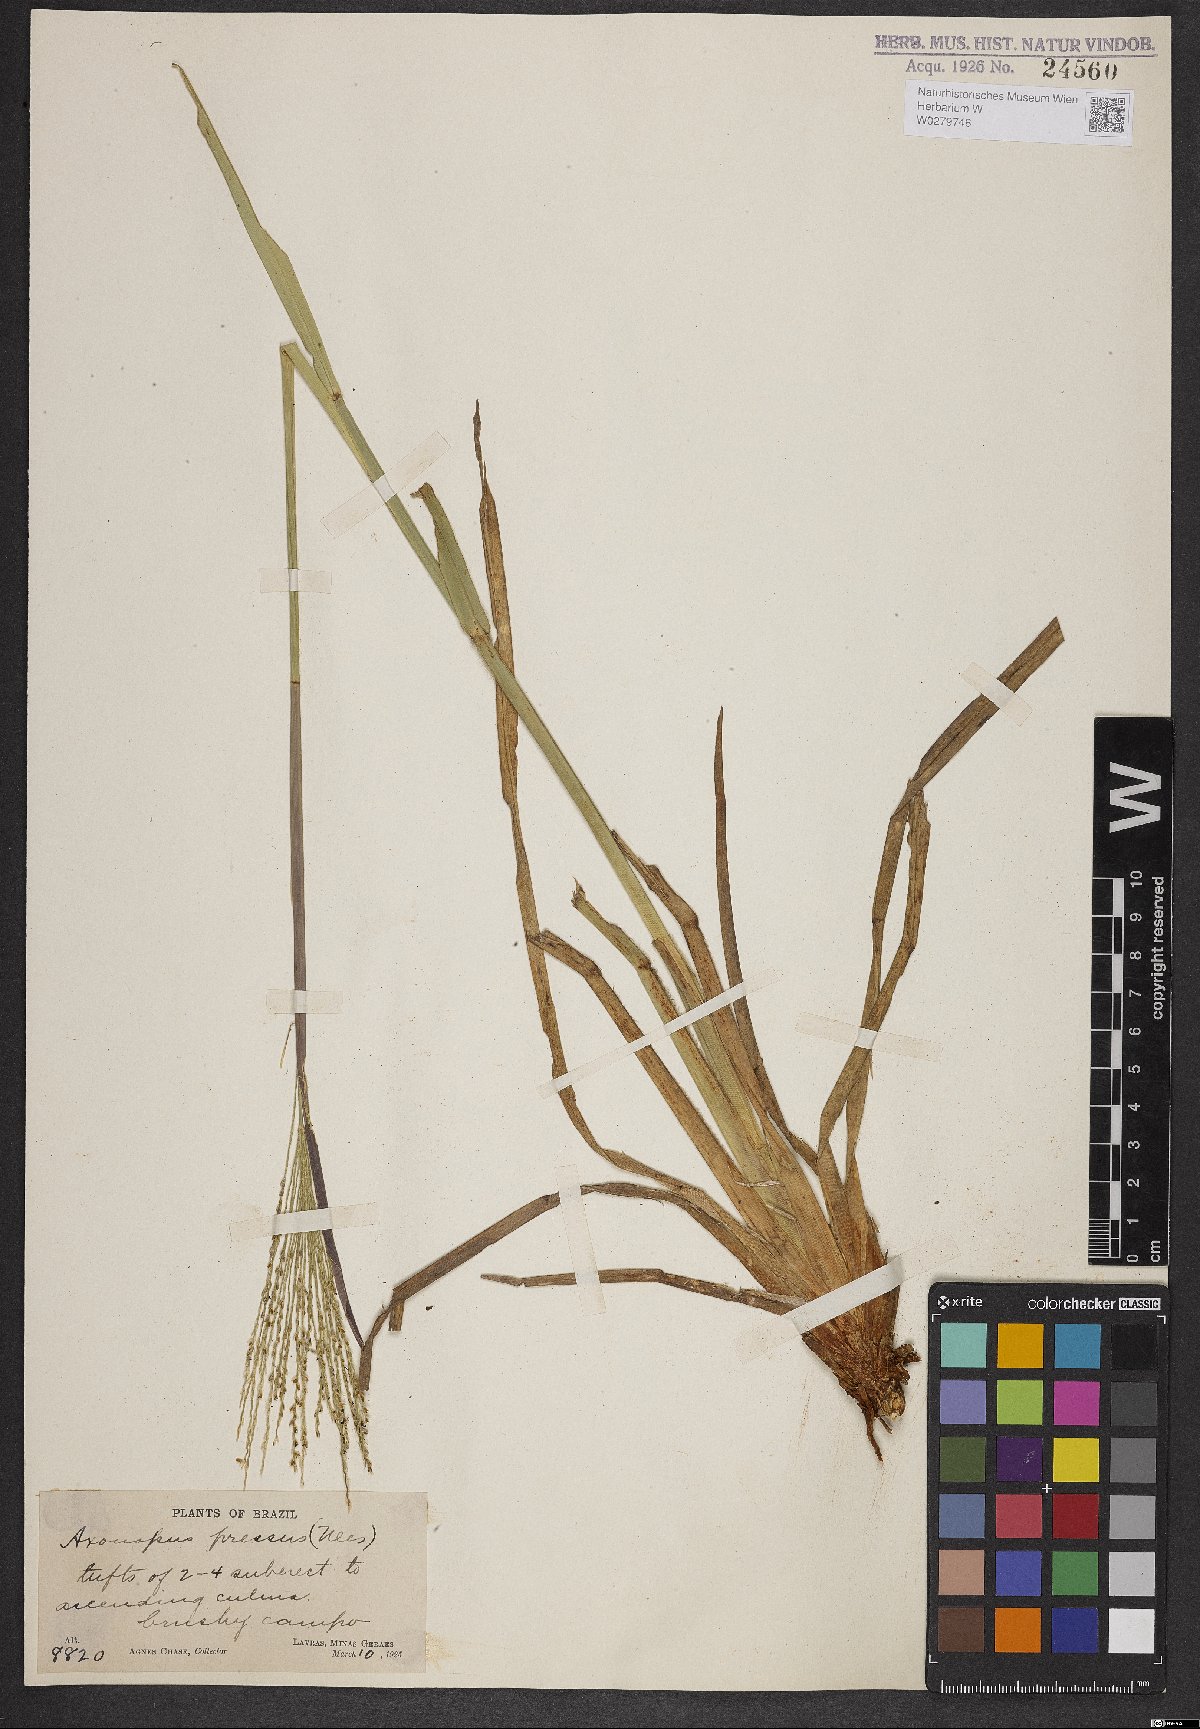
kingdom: Plantae
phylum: Tracheophyta
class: Liliopsida
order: Poales
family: Poaceae
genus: Axonopus
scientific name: Axonopus pressus
